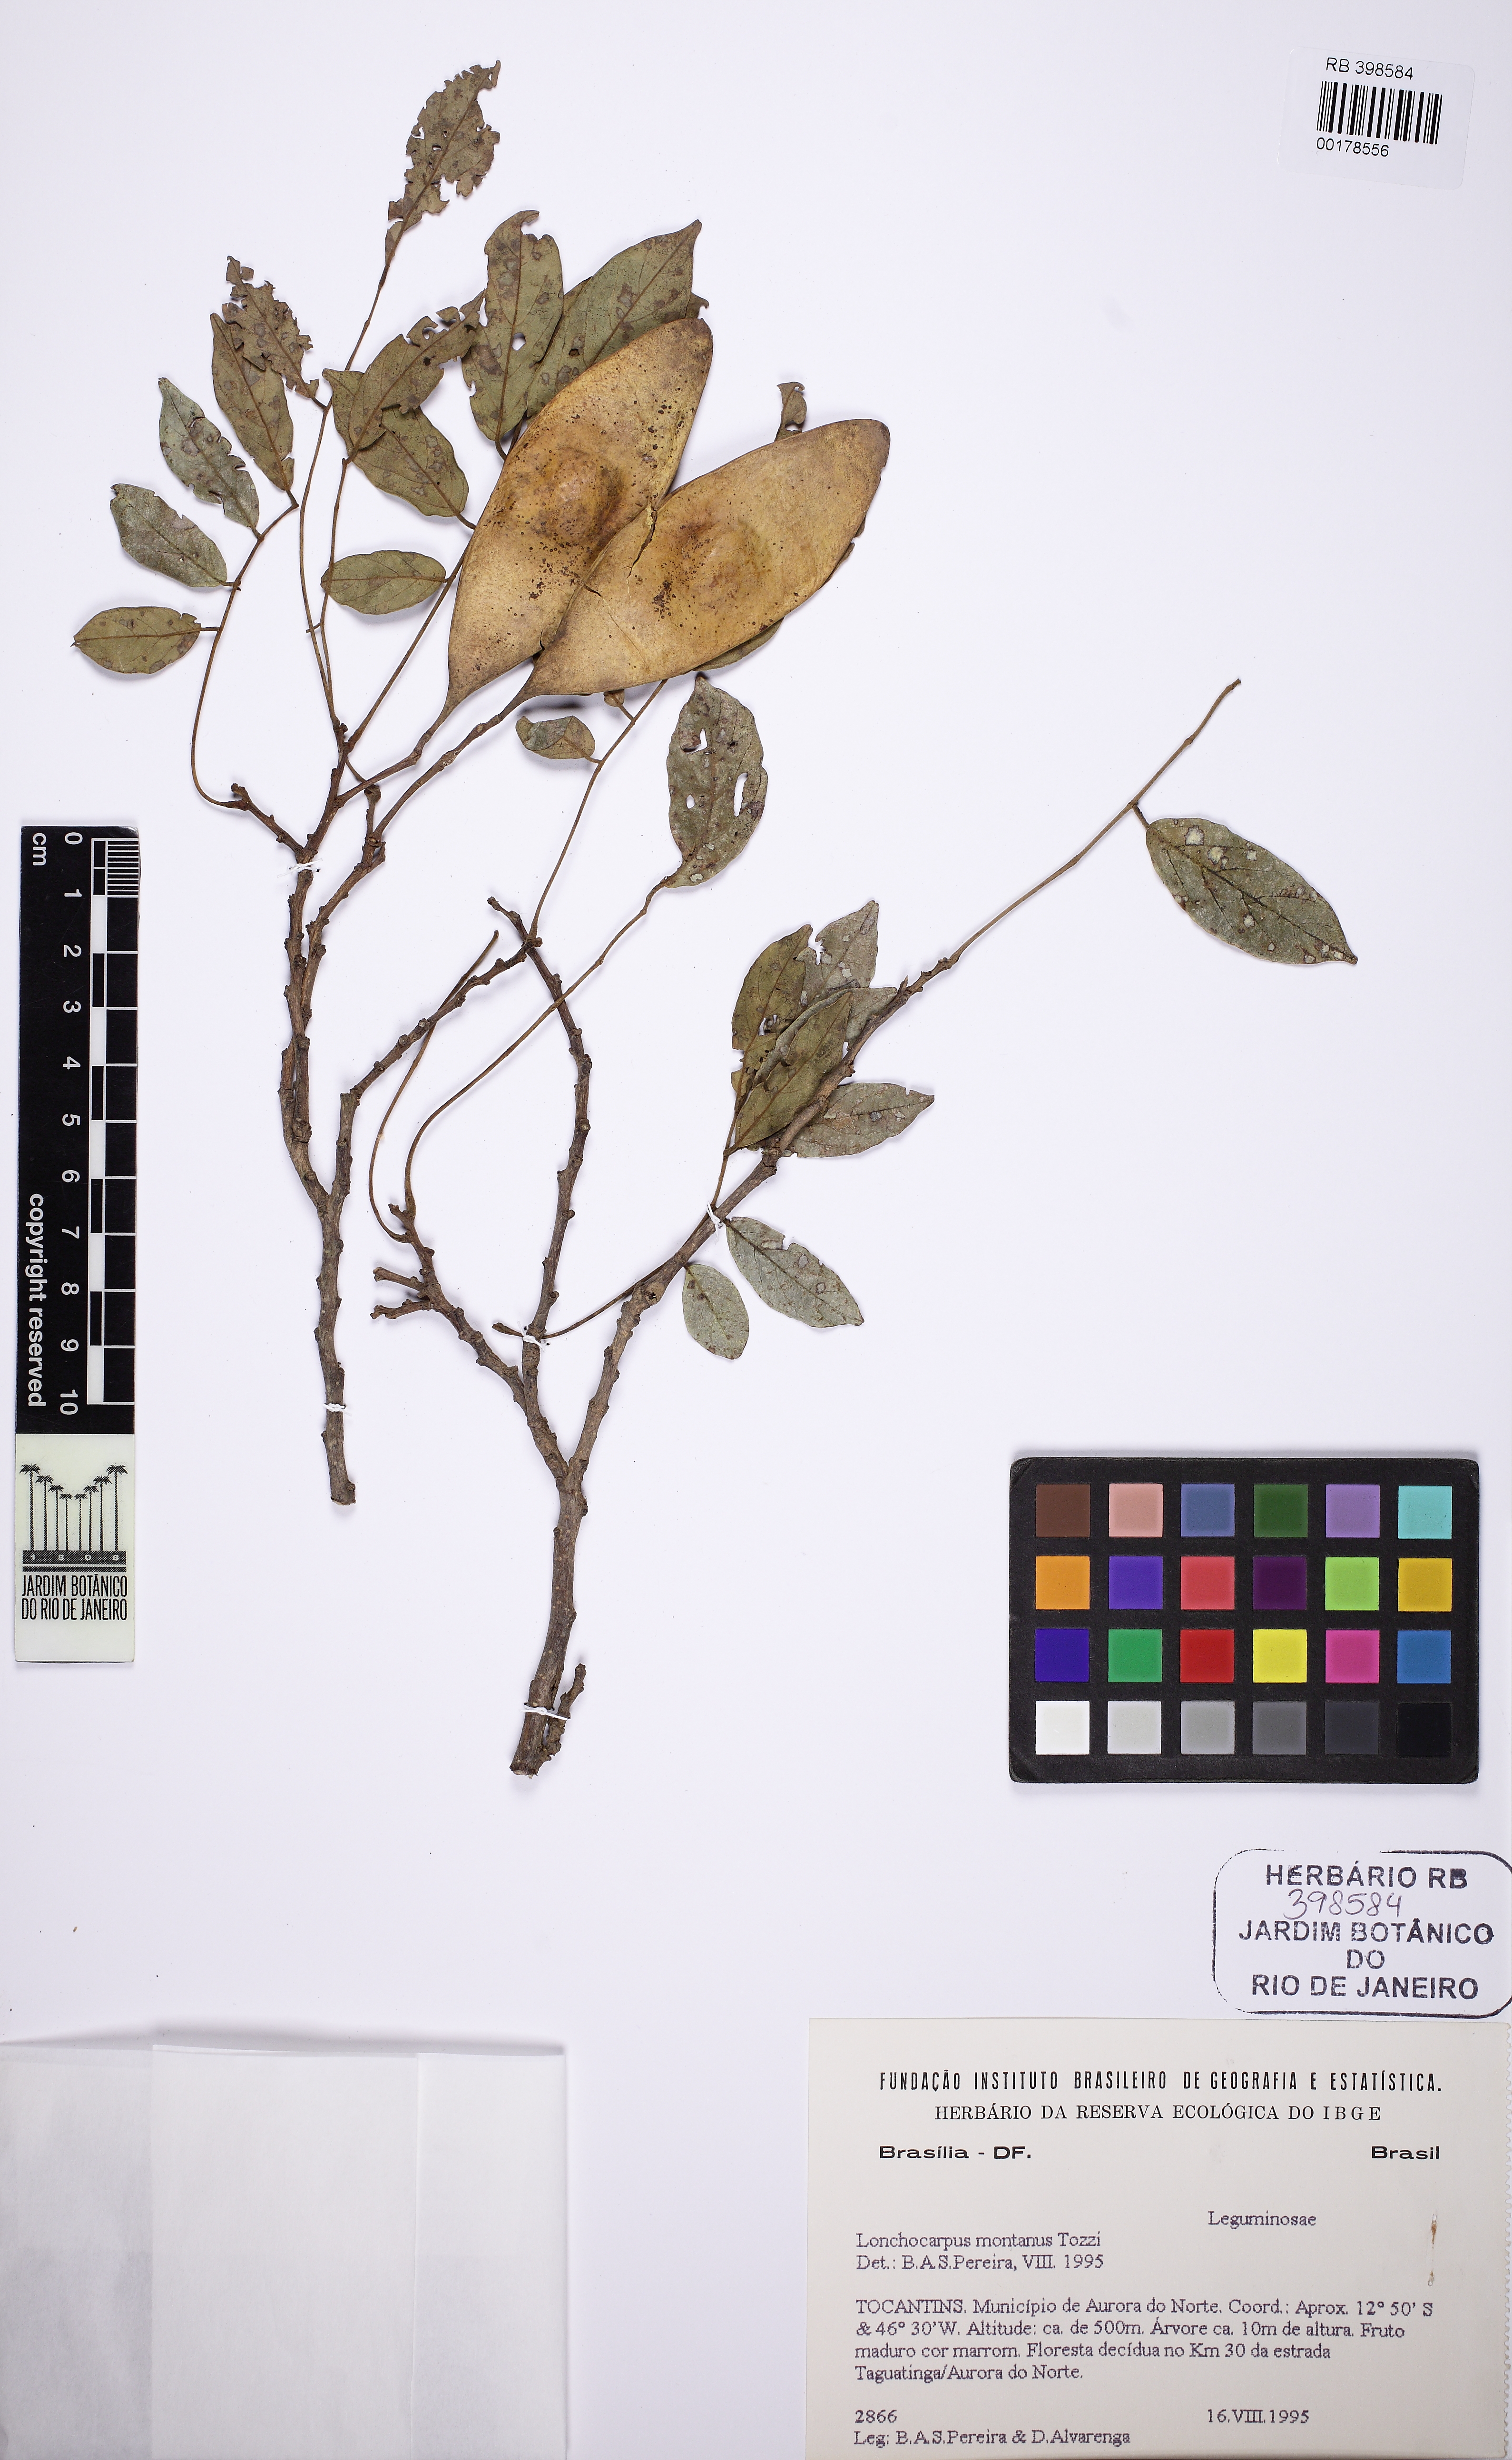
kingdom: Plantae
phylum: Tracheophyta
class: Magnoliopsida
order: Fabales
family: Fabaceae
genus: Muellera
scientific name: Muellera montana
